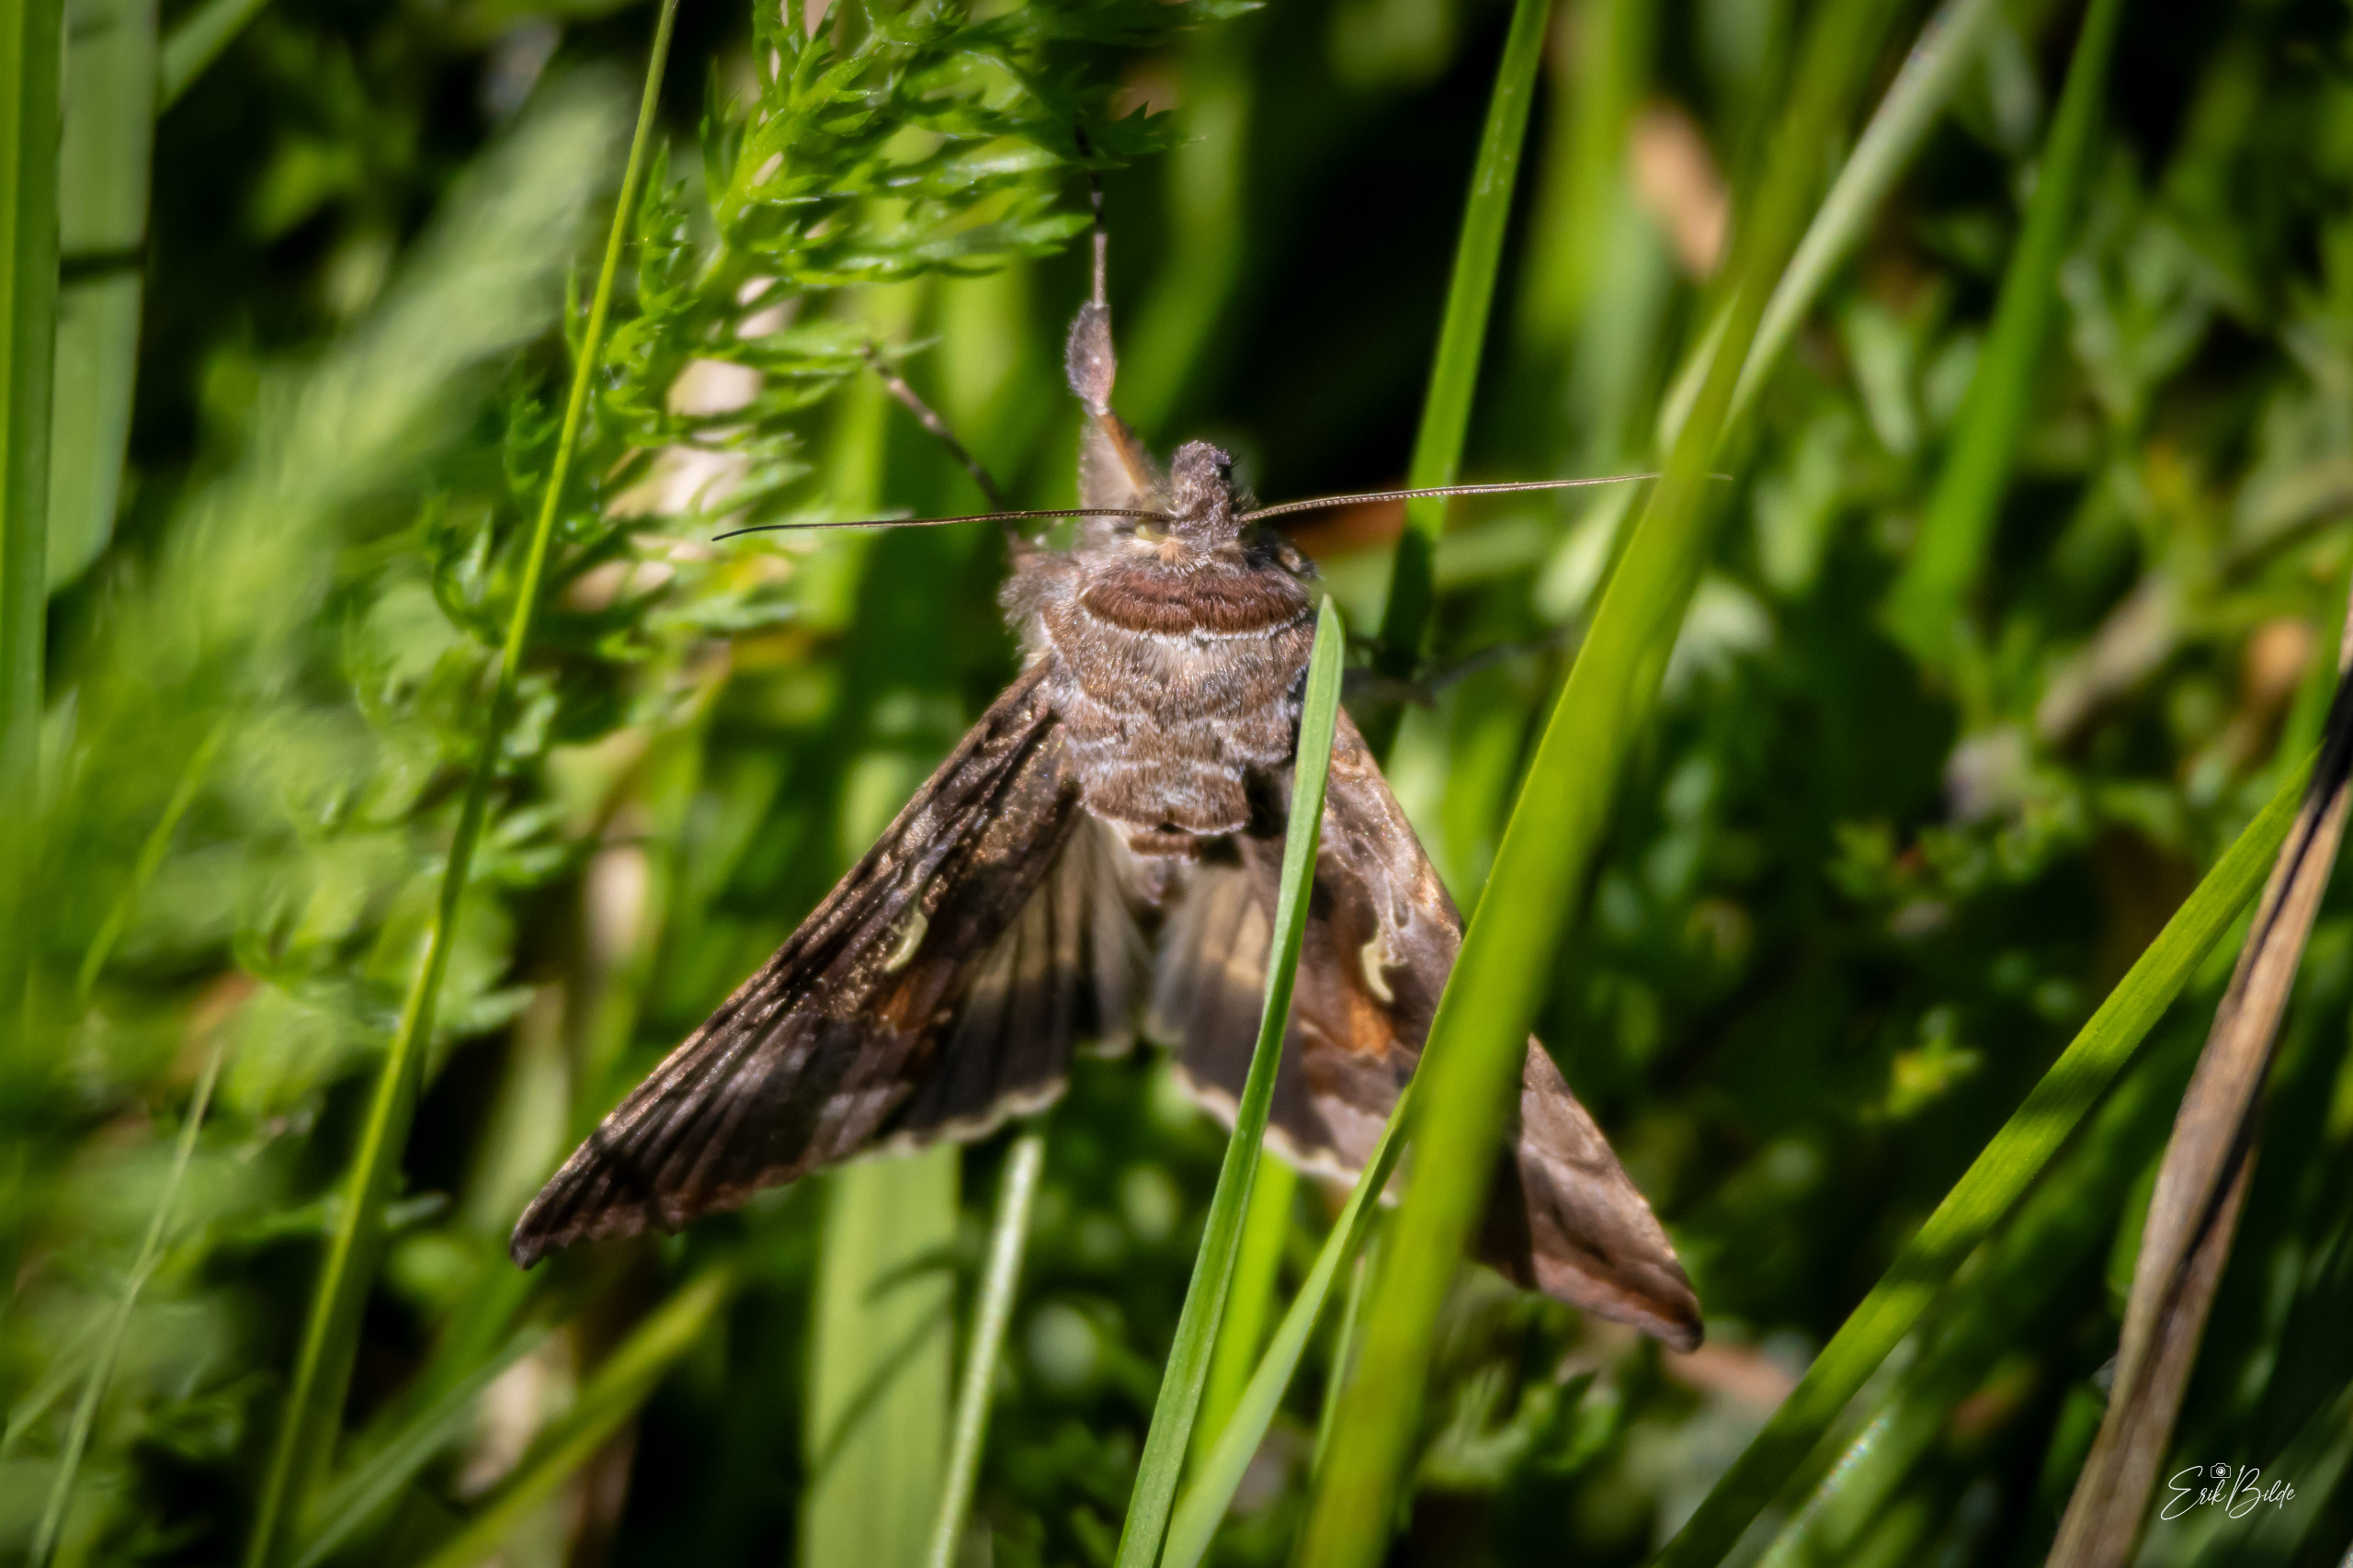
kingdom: Animalia
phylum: Arthropoda
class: Insecta
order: Lepidoptera
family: Noctuidae
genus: Autographa
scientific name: Autographa gamma
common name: Gammaugle
